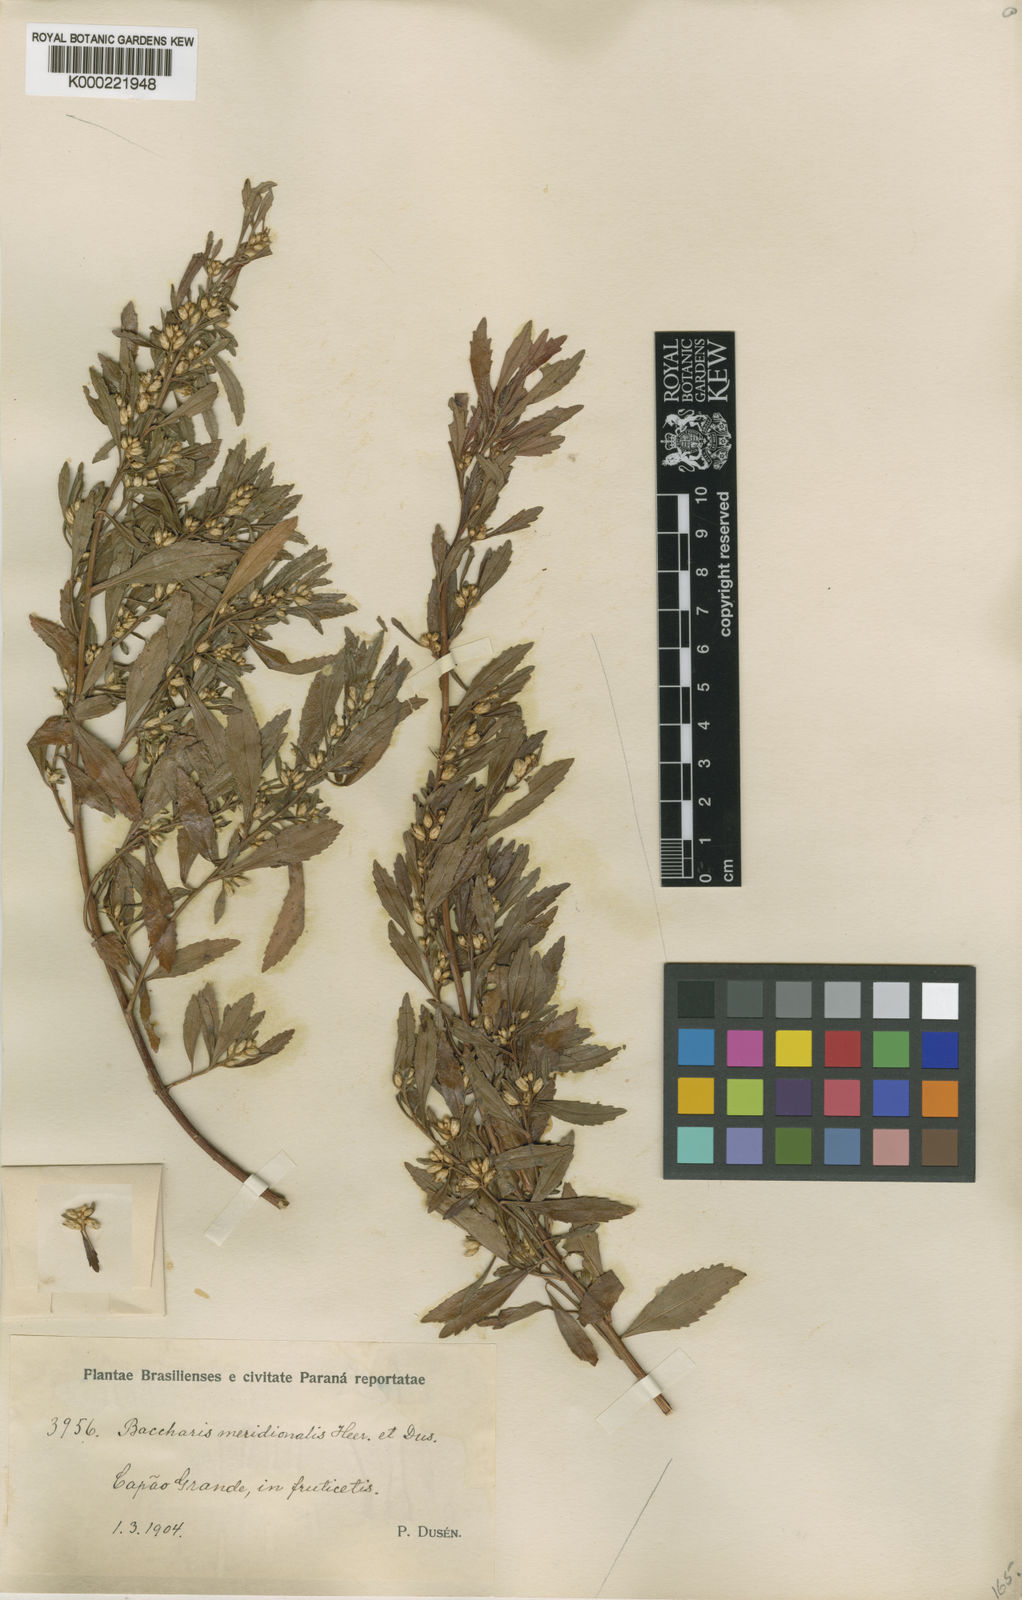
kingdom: Plantae
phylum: Tracheophyta
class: Magnoliopsida
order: Asterales
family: Asteraceae
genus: Baccharis
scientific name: Baccharis
